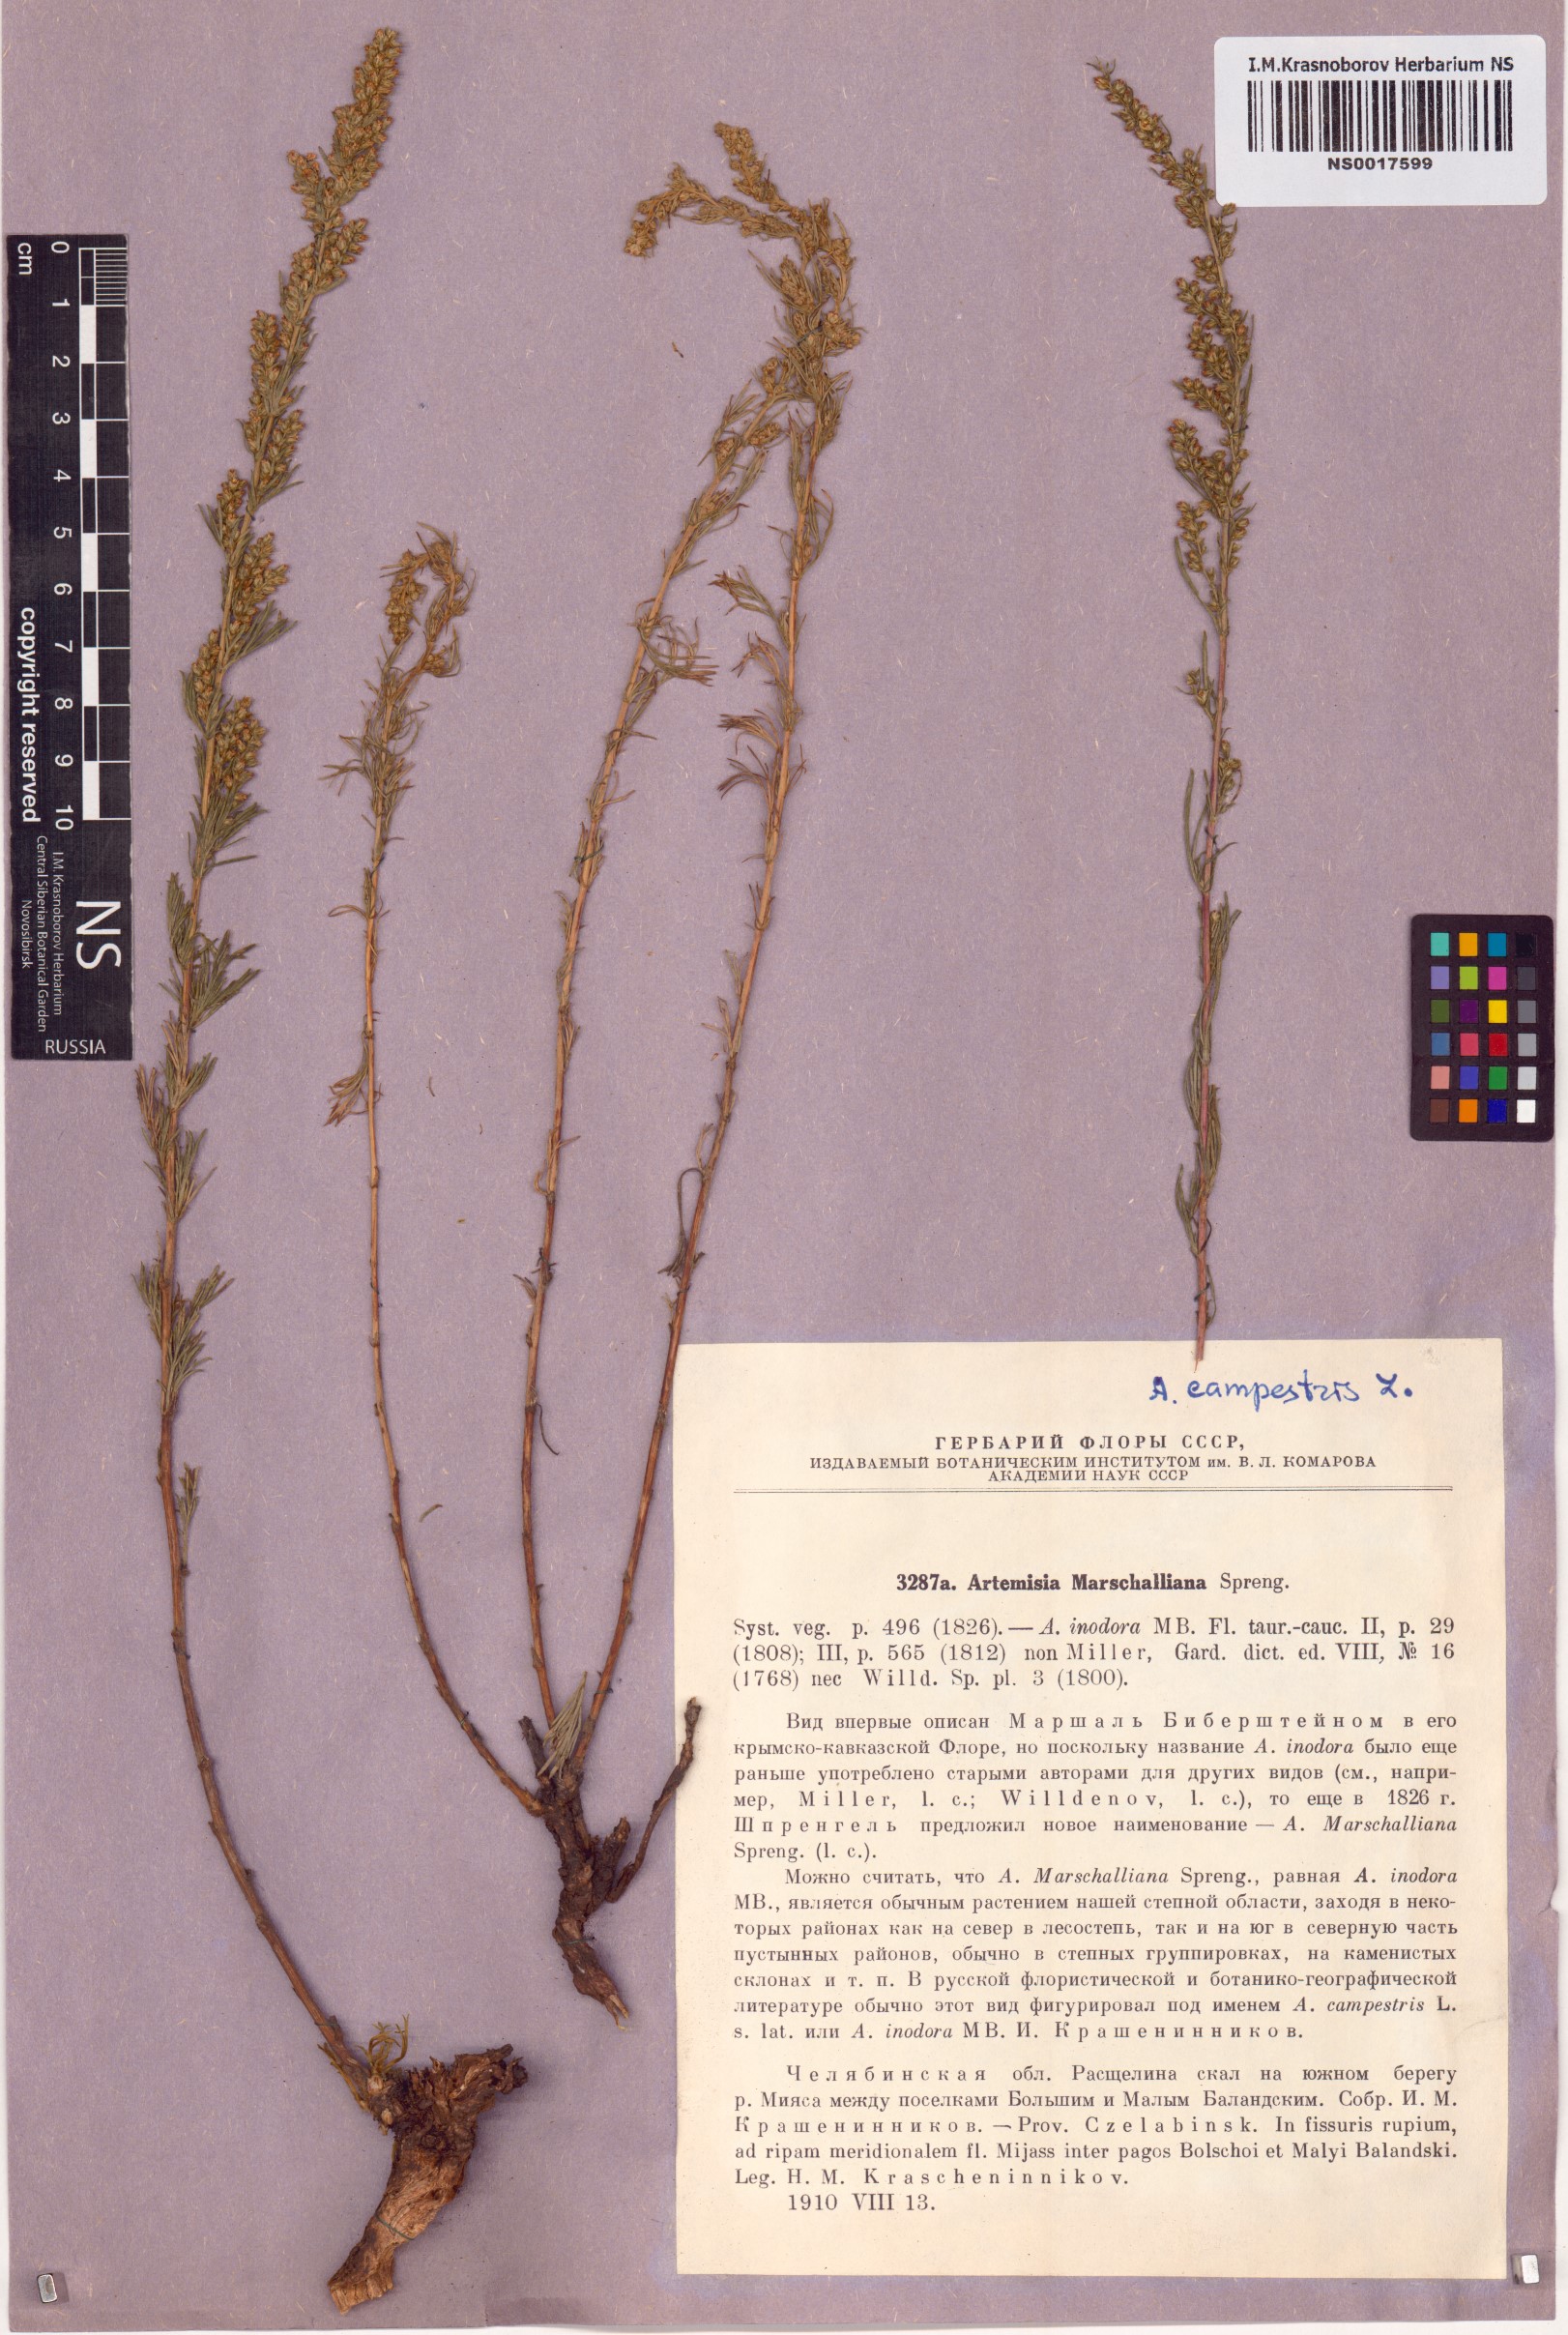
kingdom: Plantae
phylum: Tracheophyta
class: Magnoliopsida
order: Asterales
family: Asteraceae
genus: Artemisia
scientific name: Artemisia campestris
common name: Field wormwood
